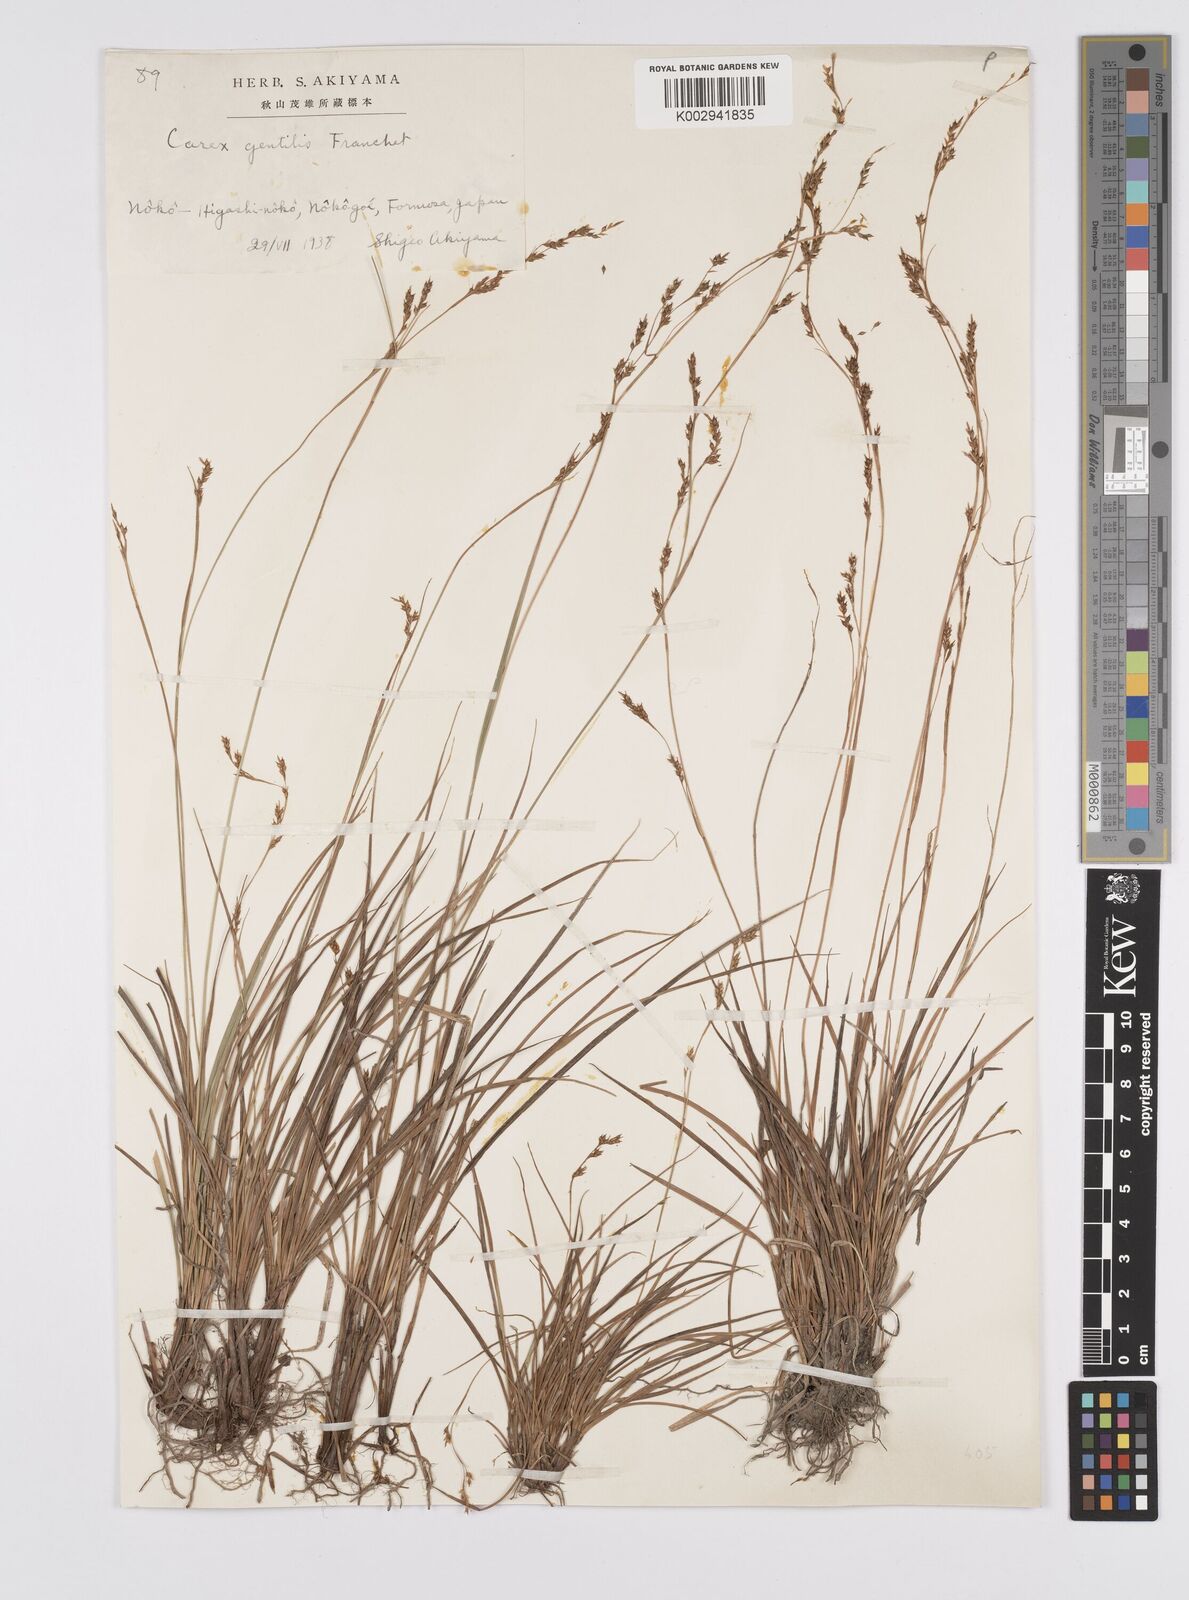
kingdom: Plantae
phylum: Tracheophyta
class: Liliopsida
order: Poales
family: Cyperaceae
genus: Carex
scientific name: Carex gentilis
